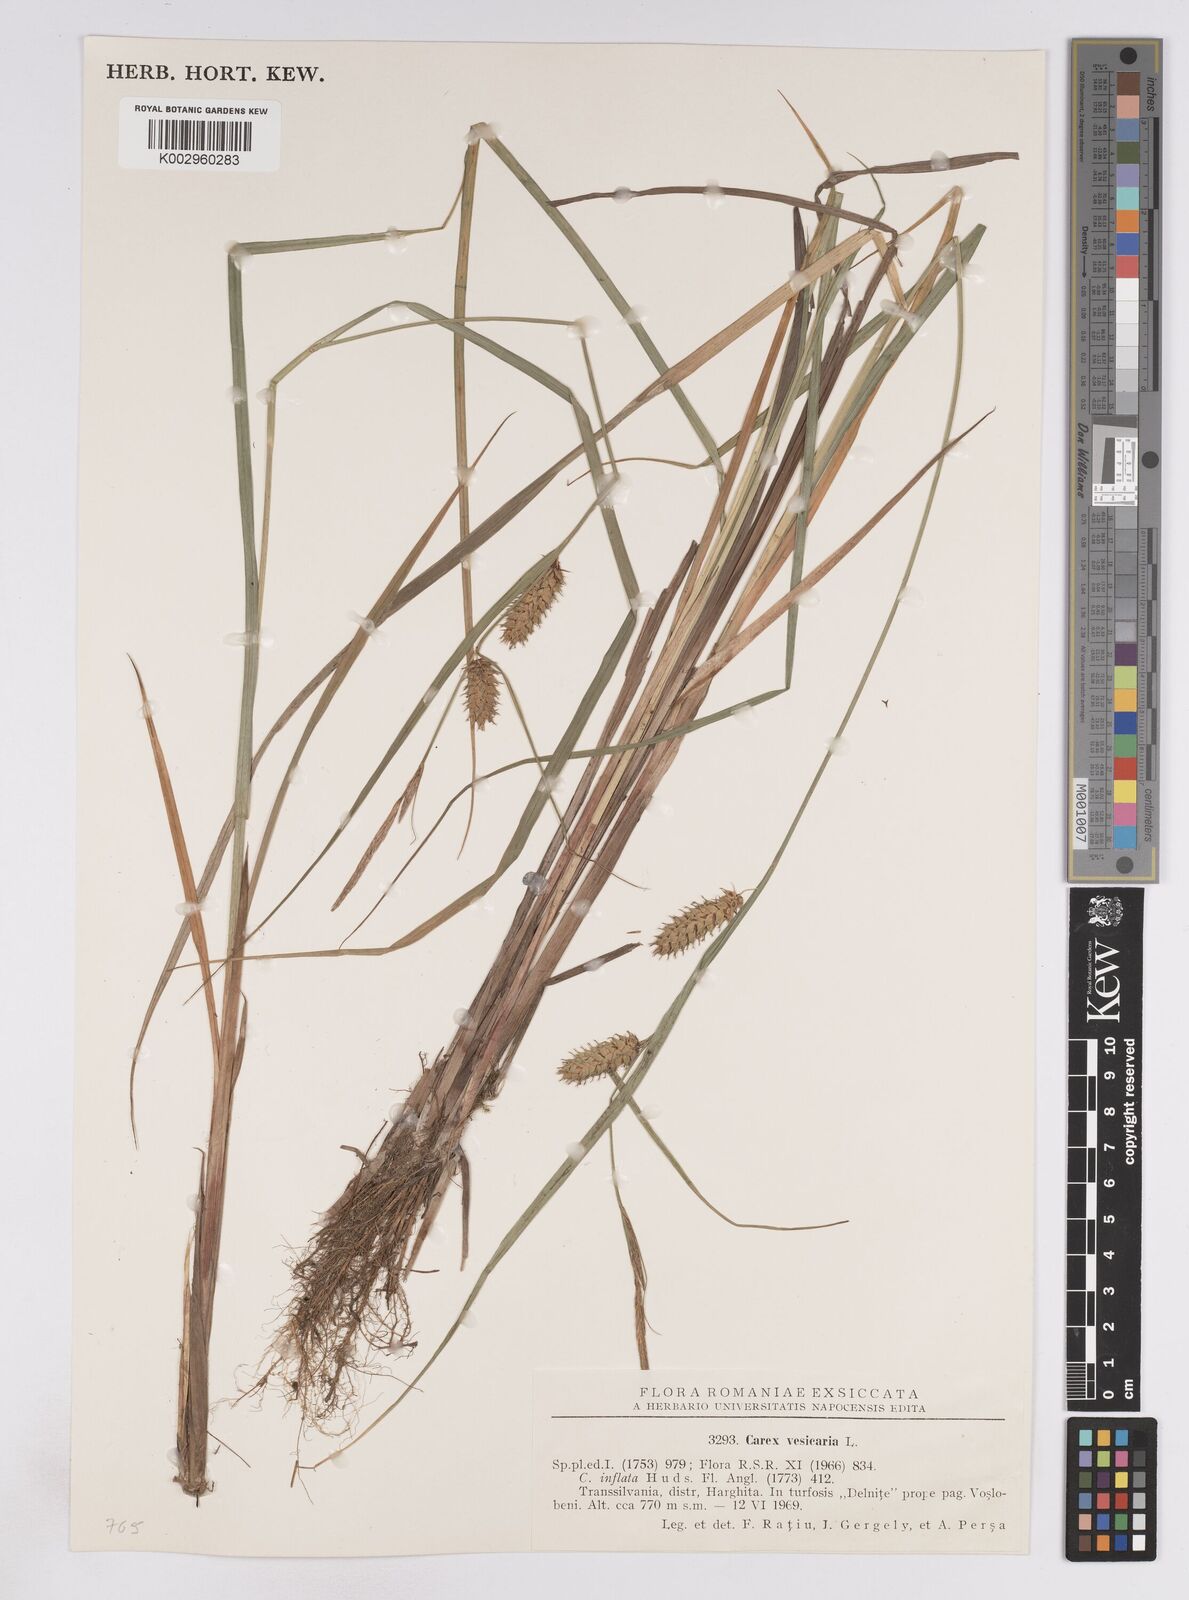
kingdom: Plantae
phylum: Tracheophyta
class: Liliopsida
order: Poales
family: Cyperaceae
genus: Carex
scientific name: Carex vesicaria
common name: Bladder-sedge
